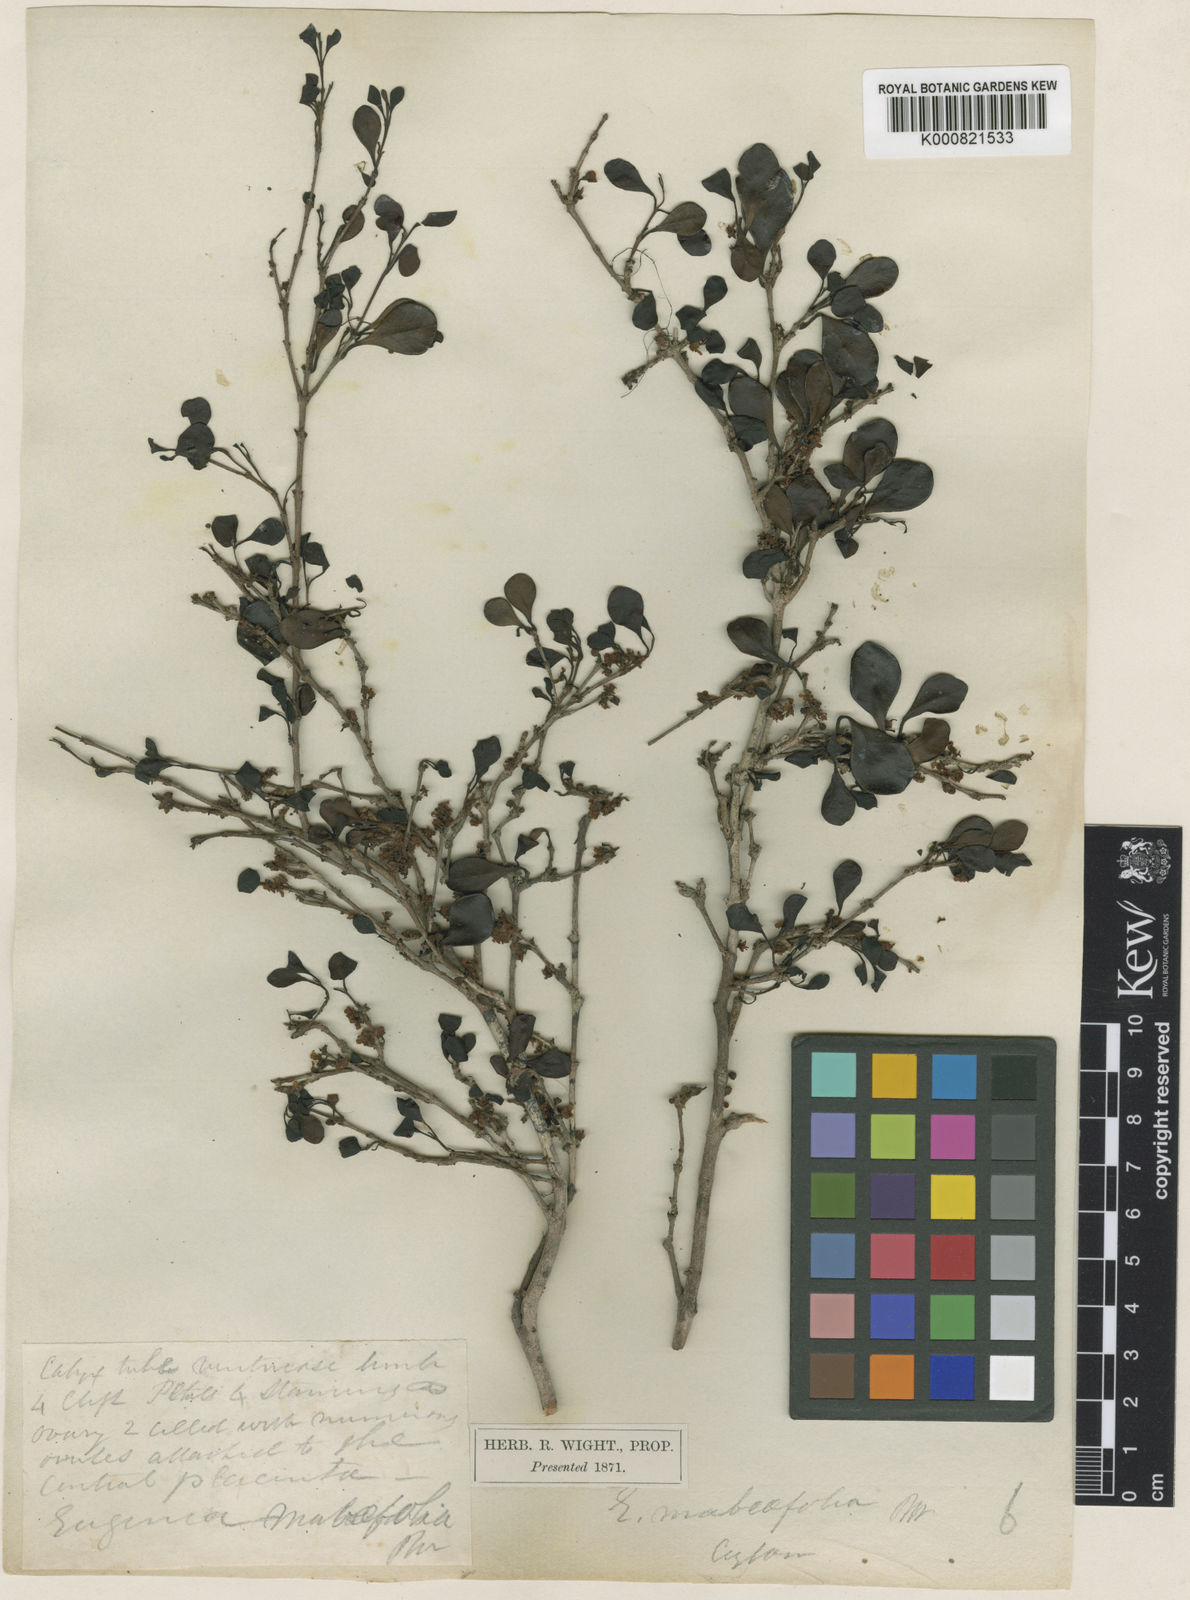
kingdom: Plantae
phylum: Tracheophyta
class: Magnoliopsida
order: Myrtales
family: Myrtaceae
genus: Eugenia
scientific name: Eugenia mabaeoides
